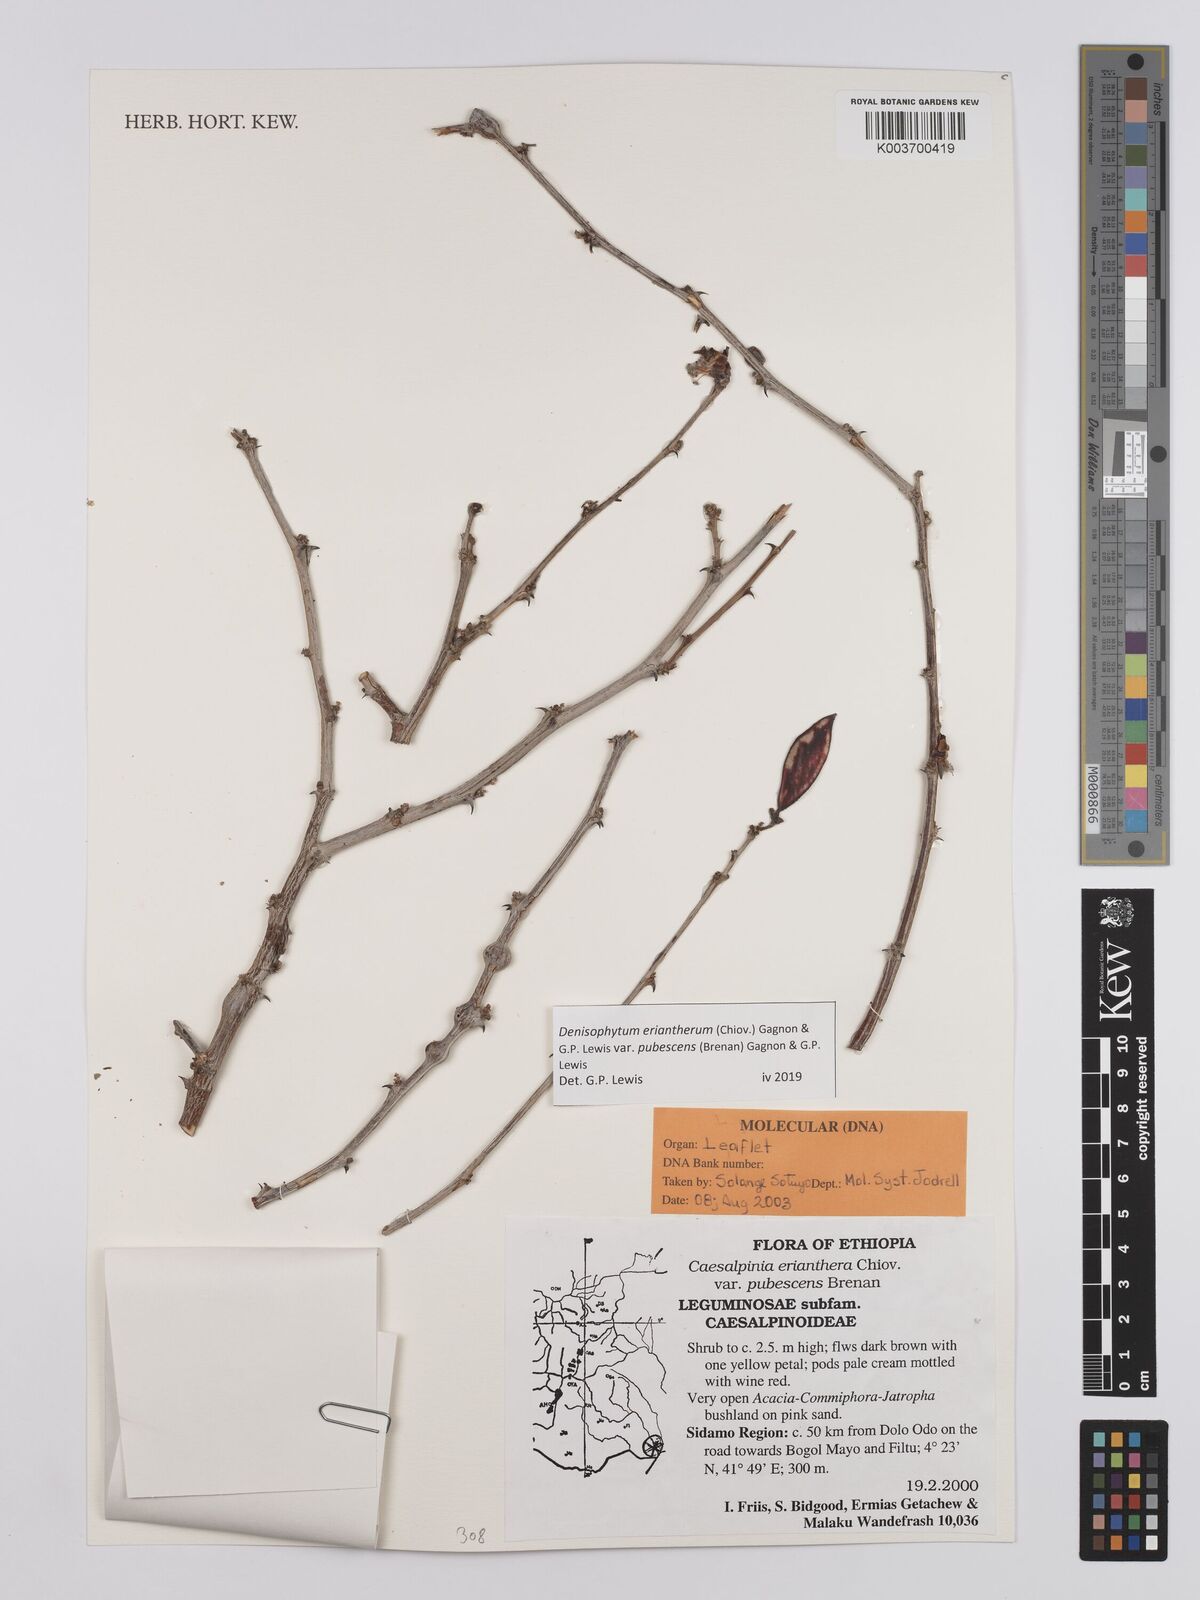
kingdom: Plantae
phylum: Tracheophyta
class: Magnoliopsida
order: Fabales
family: Fabaceae
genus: Denisophytum
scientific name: Denisophytum eriantherum
